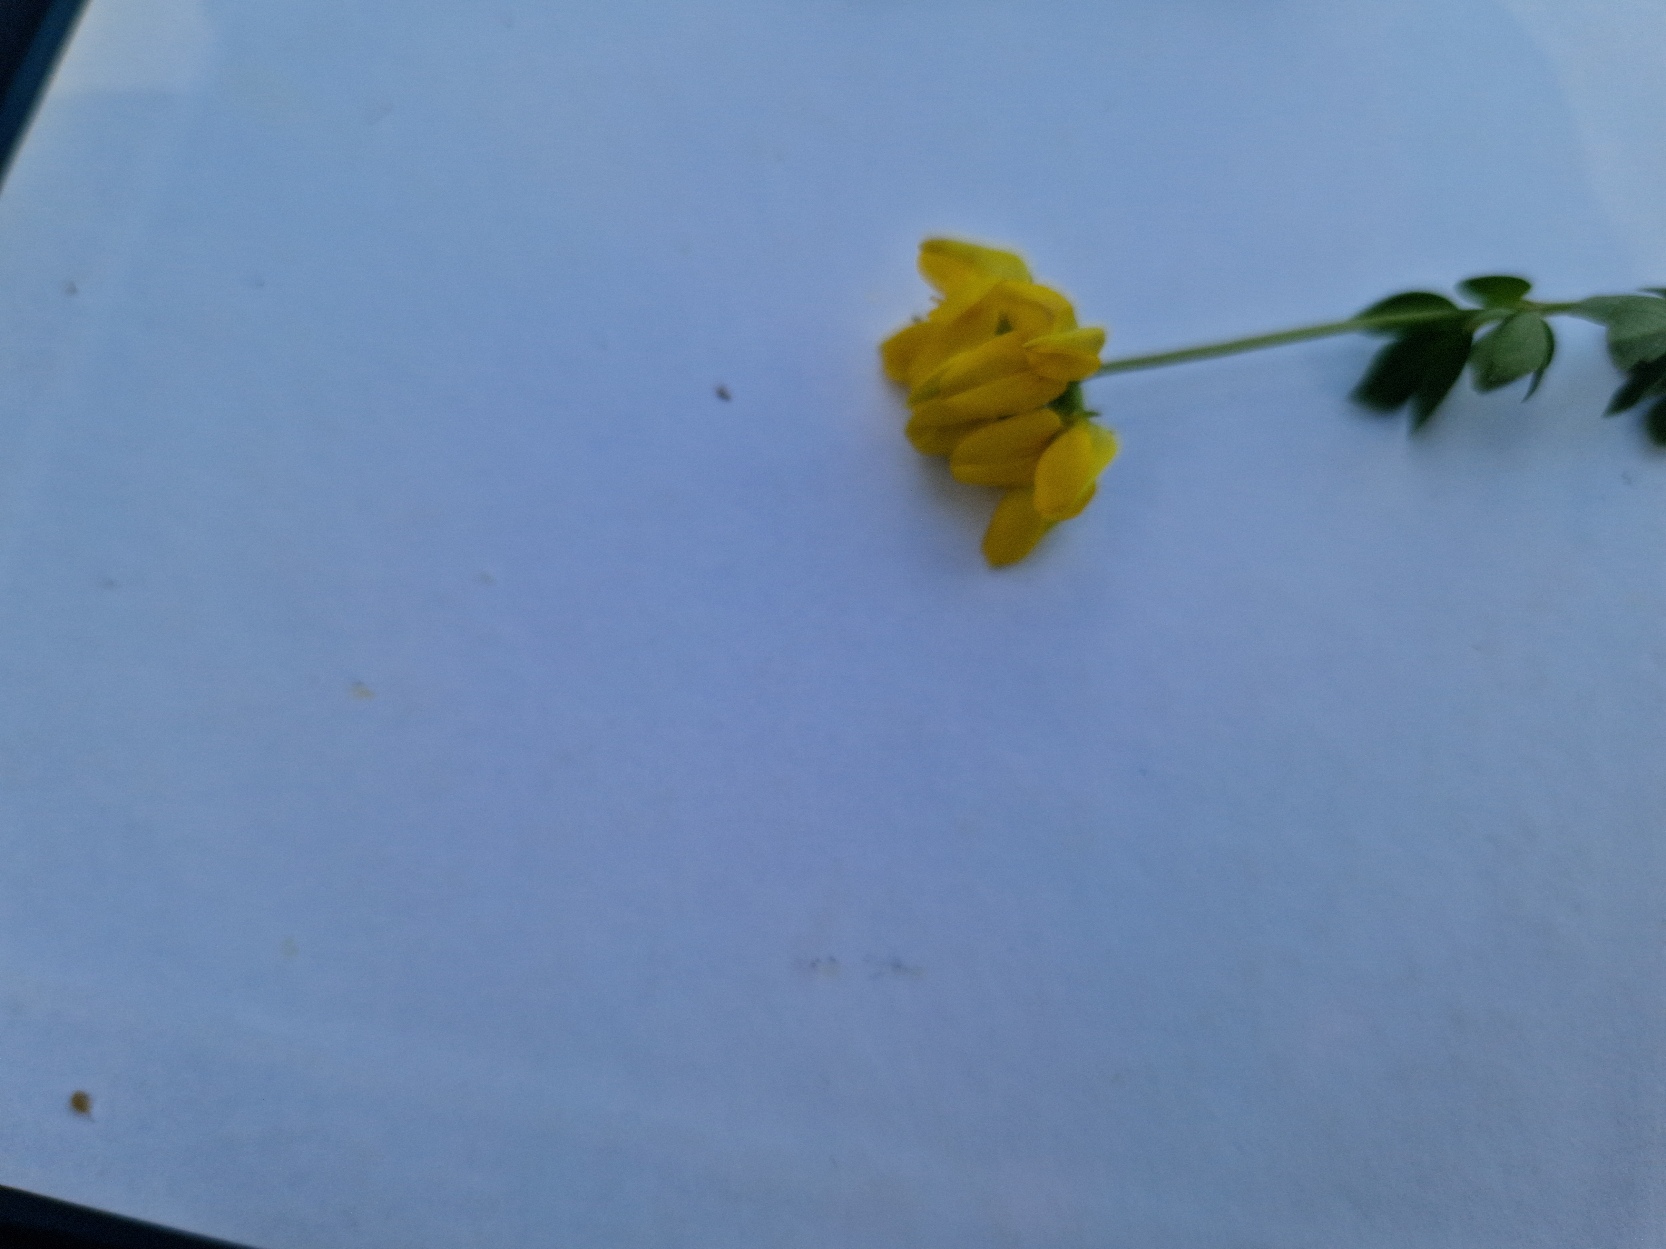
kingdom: Plantae
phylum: Tracheophyta
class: Magnoliopsida
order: Fabales
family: Fabaceae
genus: Lotus
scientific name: Lotus corniculatus
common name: Almindelig kællingetand
